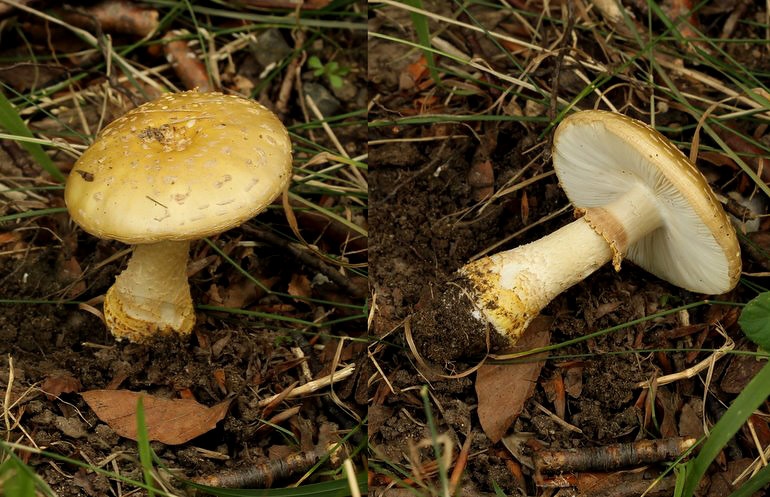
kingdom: Fungi
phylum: Basidiomycota
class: Agaricomycetes
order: Agaricales
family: Amanitaceae
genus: Amanita
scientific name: Amanita franchetii
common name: gulrandet fluesvamp
